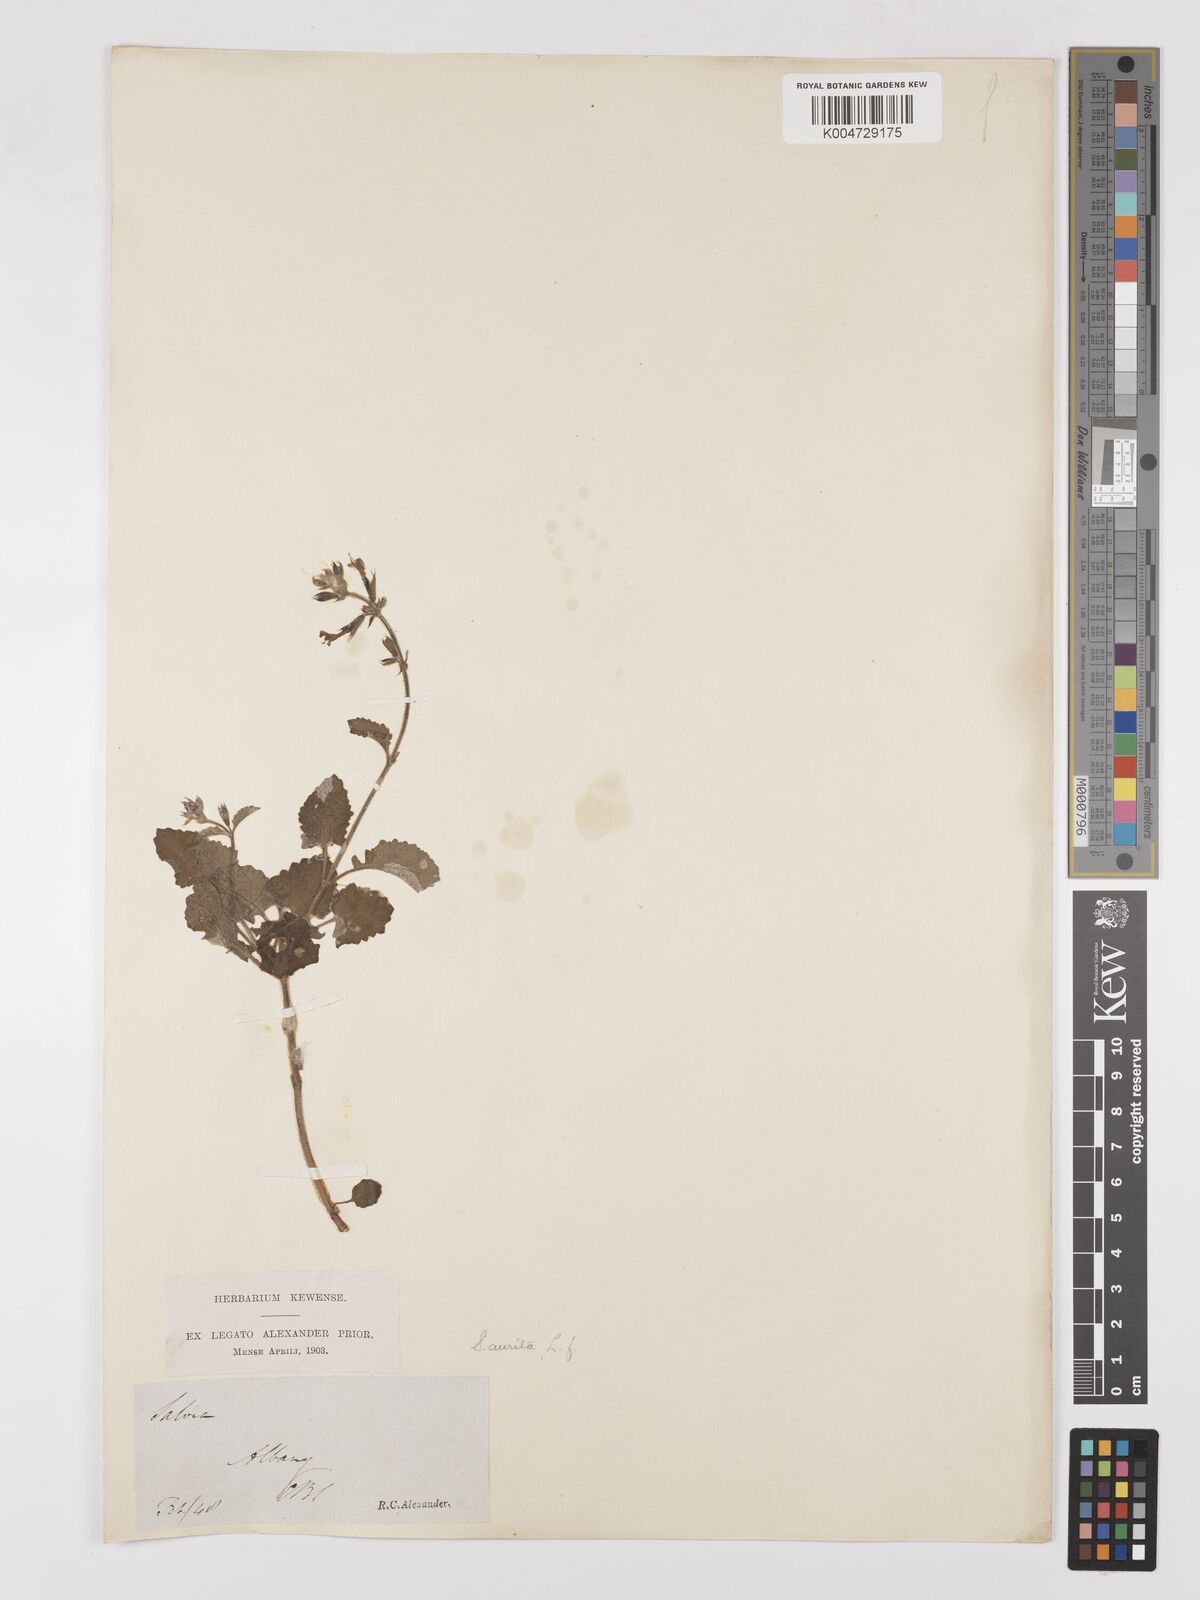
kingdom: Plantae
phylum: Tracheophyta
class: Magnoliopsida
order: Lamiales
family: Lamiaceae
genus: Salvia
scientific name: Salvia aurita
